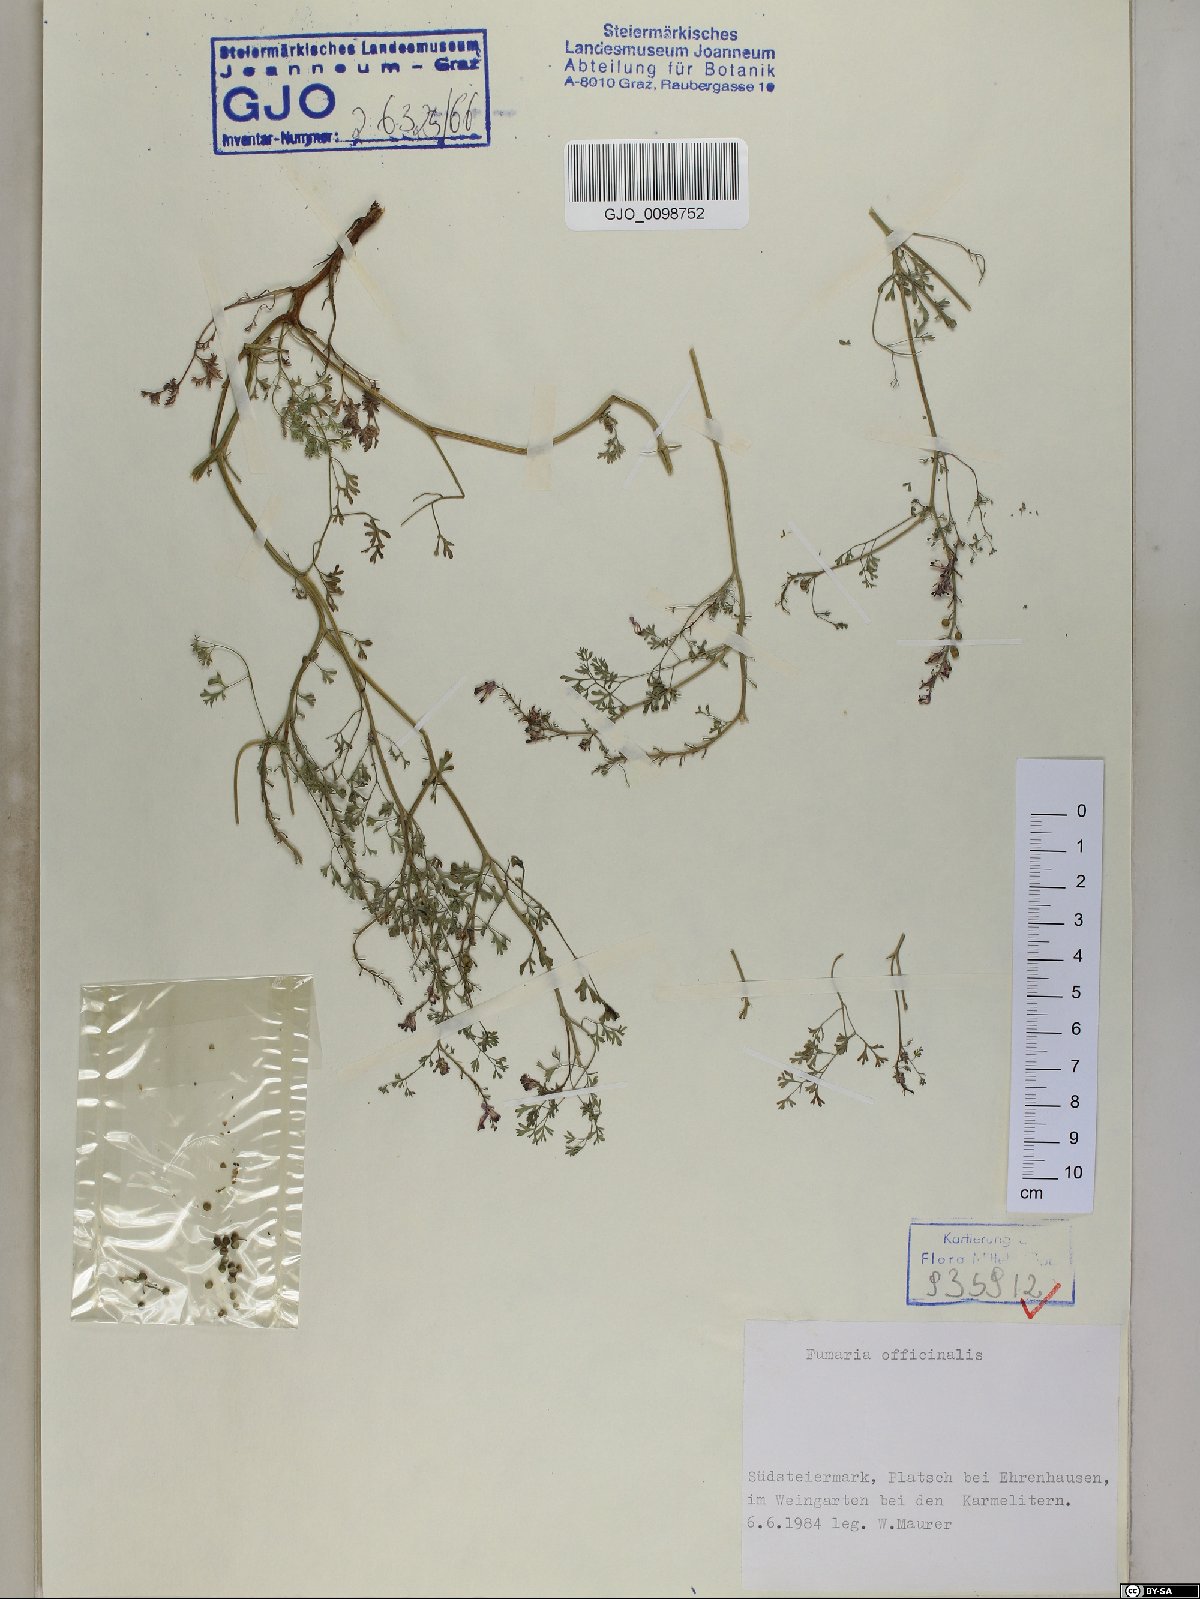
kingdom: Plantae
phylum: Tracheophyta
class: Magnoliopsida
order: Ranunculales
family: Papaveraceae
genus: Fumaria
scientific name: Fumaria officinalis
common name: Common fumitory
